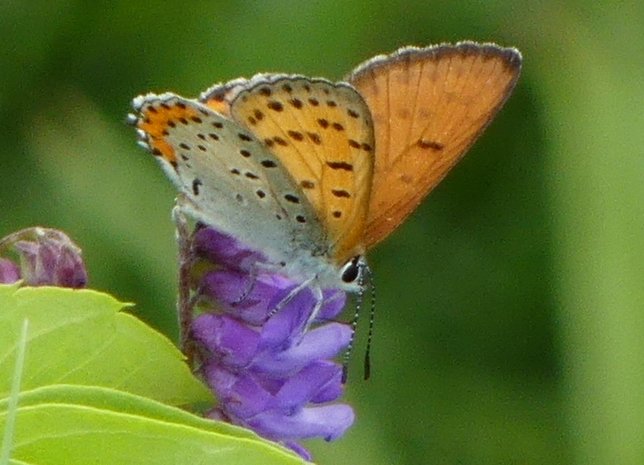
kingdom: Animalia
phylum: Arthropoda
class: Insecta
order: Lepidoptera
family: Sesiidae
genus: Sesia
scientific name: Sesia Lycaena hyllus
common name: Bronze Copper
